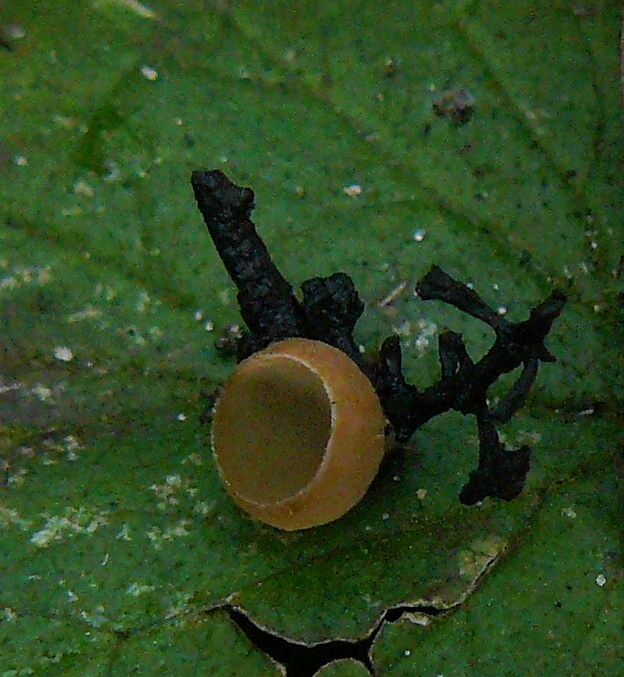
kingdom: Fungi
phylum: Ascomycota
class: Leotiomycetes
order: Helotiales
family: Sclerotiniaceae
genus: Ciboria
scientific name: Ciboria amentacea
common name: ellerakle-knoldskive
